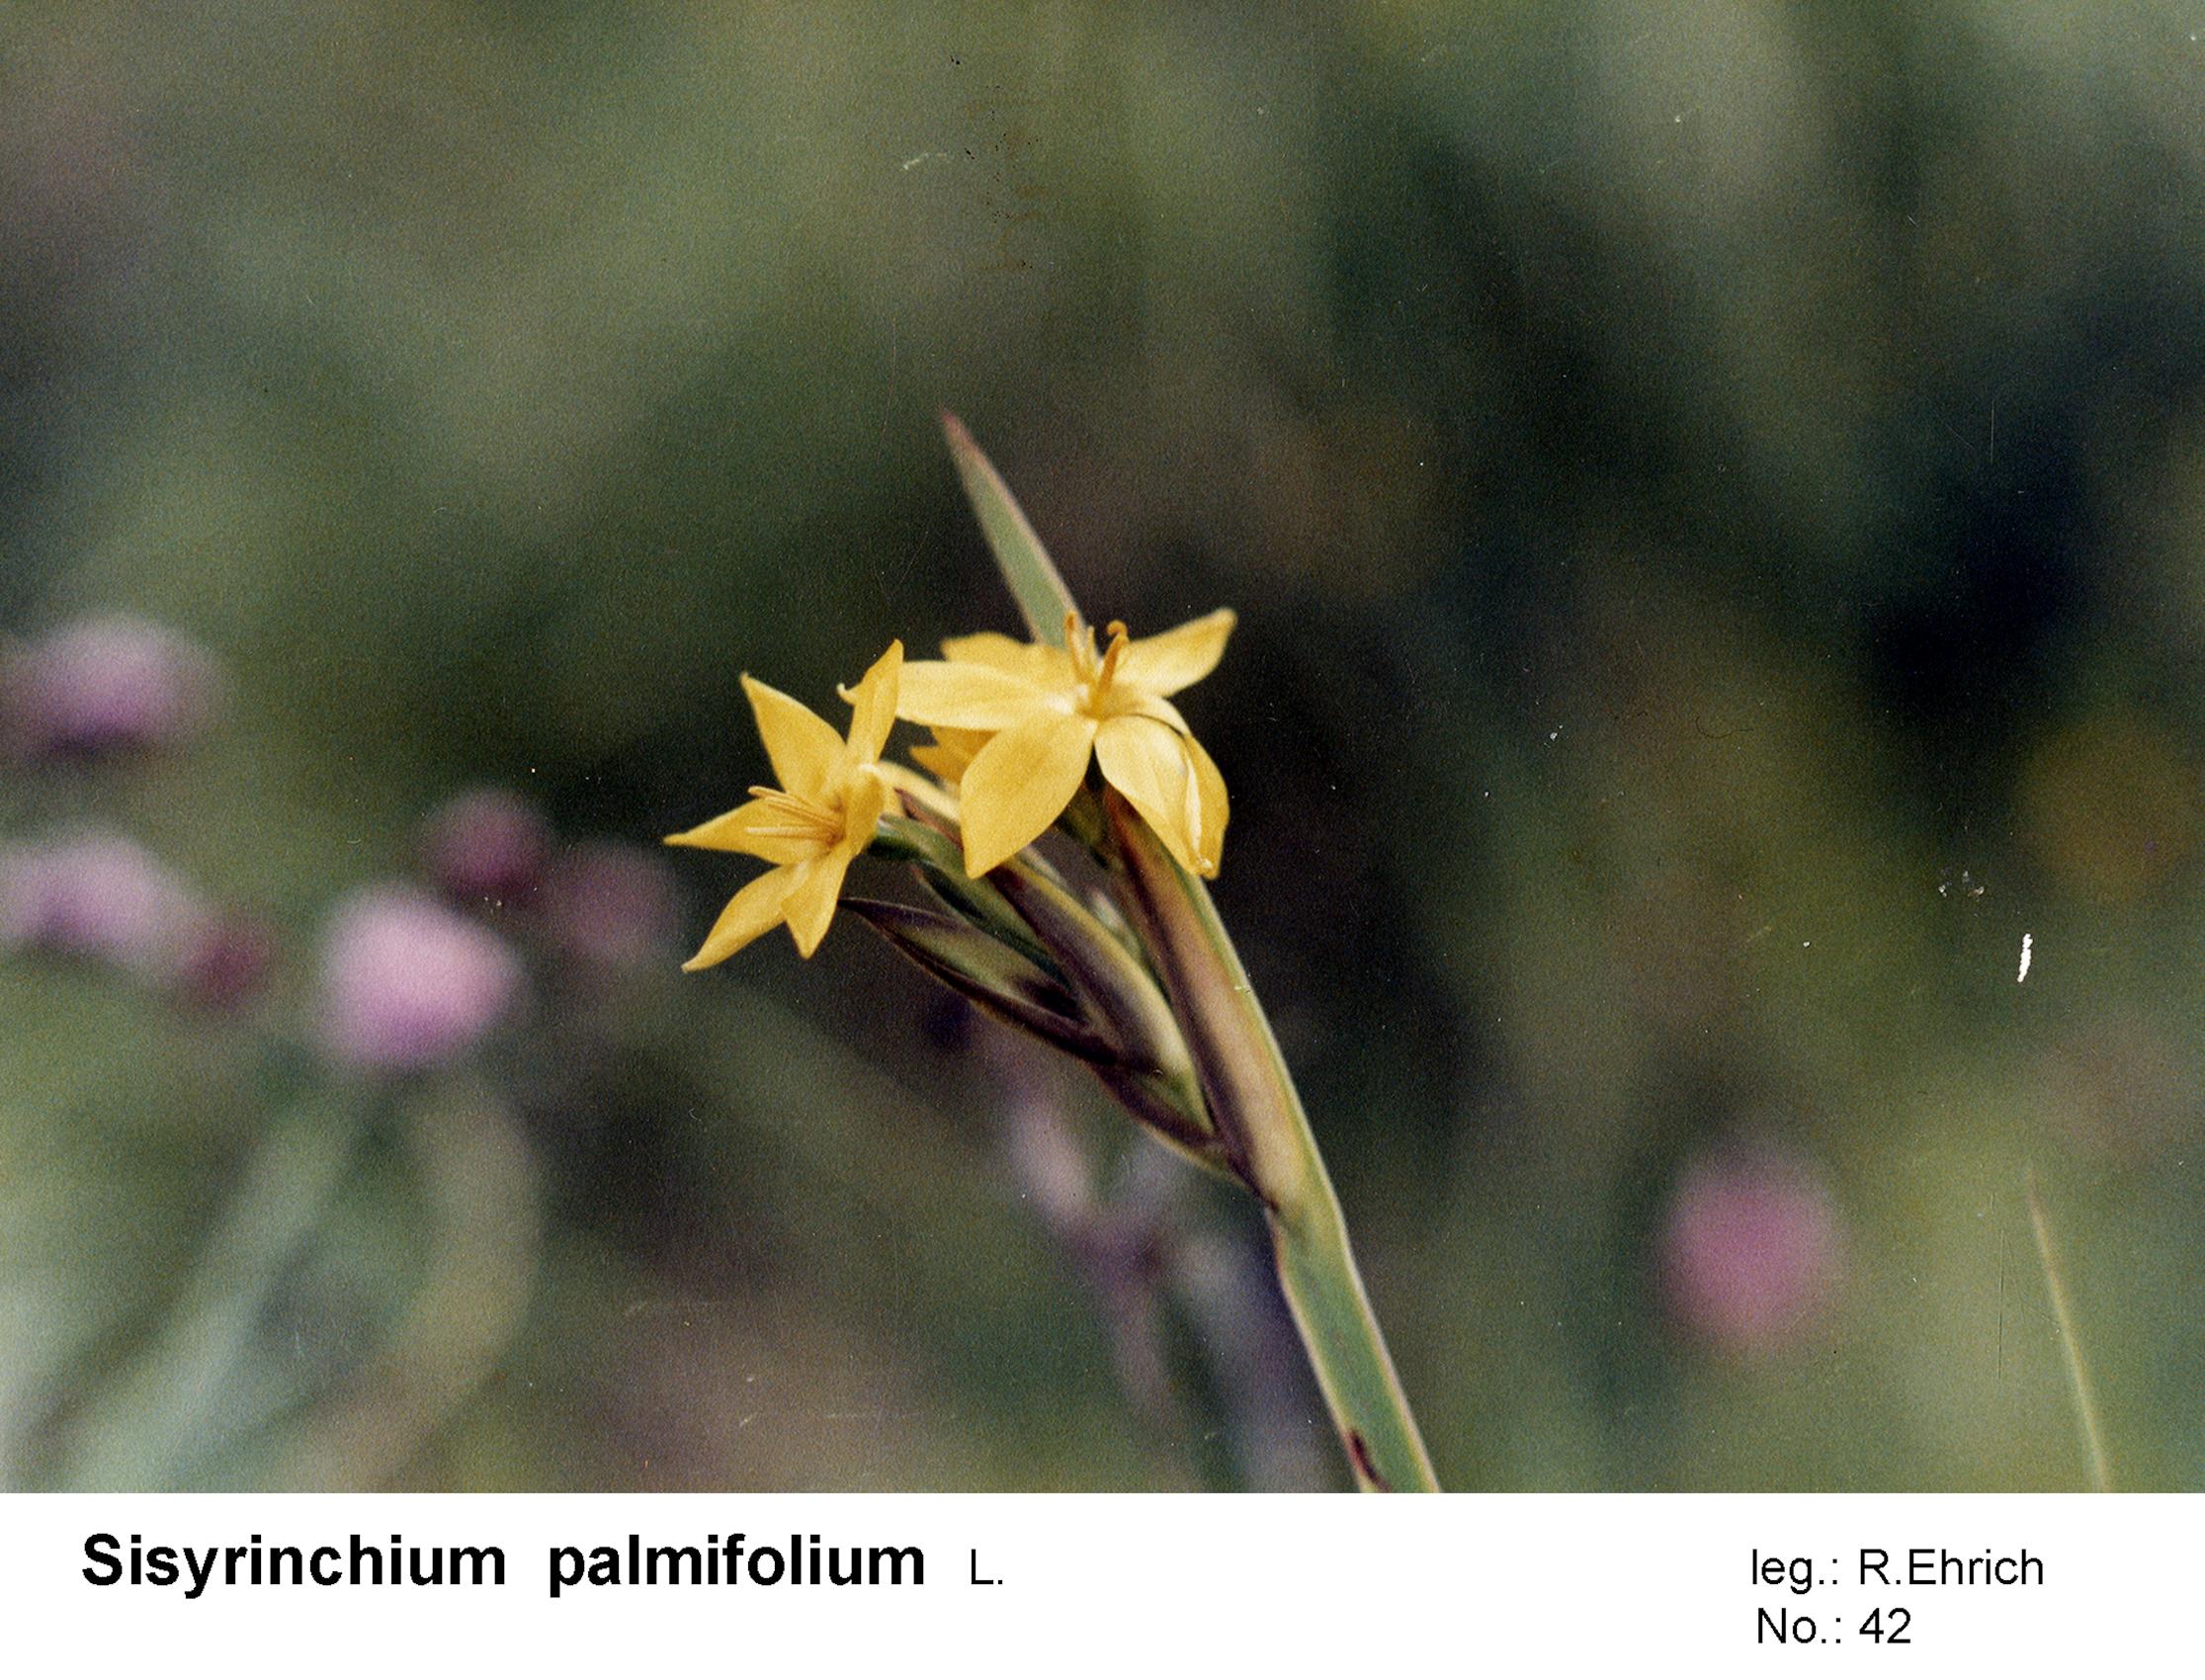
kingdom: Plantae
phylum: Tracheophyta
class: Liliopsida
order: Asparagales
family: Iridaceae
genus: Sisyrinchium
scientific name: Sisyrinchium palmifolium
